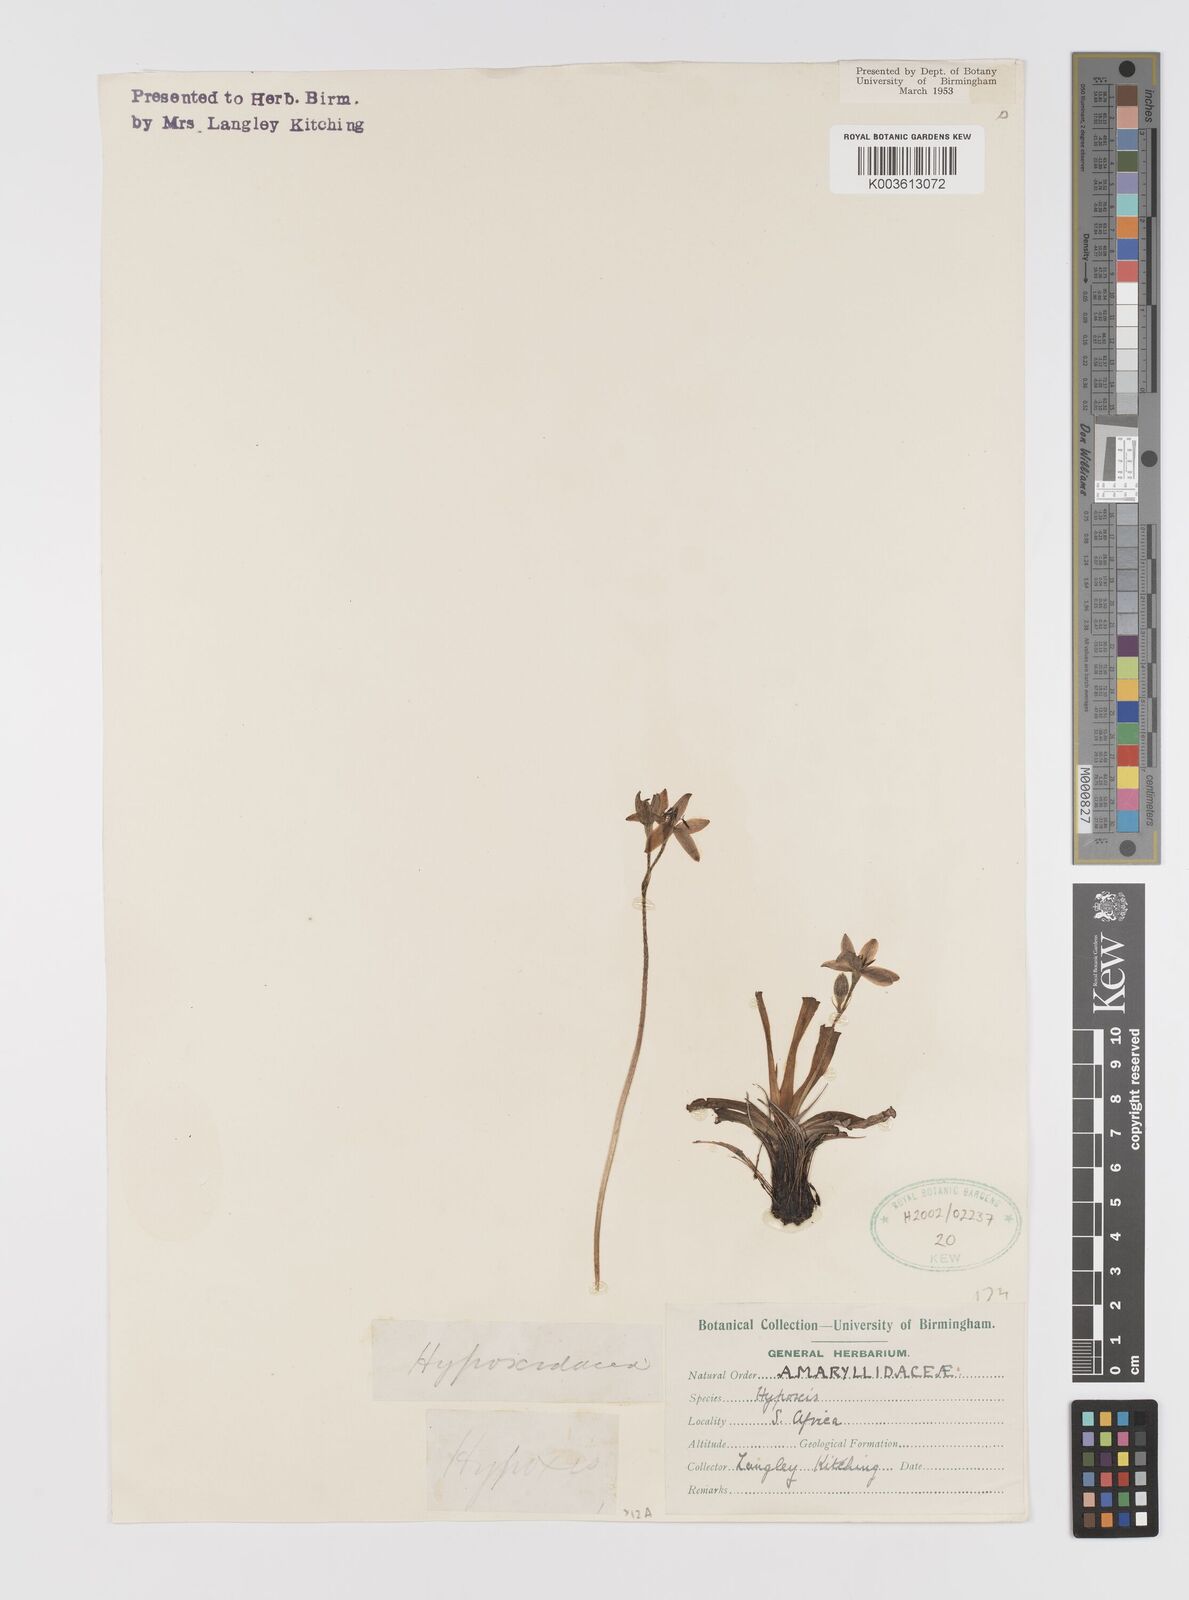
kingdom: Plantae
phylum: Tracheophyta
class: Liliopsida
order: Asparagales
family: Hypoxidaceae
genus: Hypoxis
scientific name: Hypoxis
